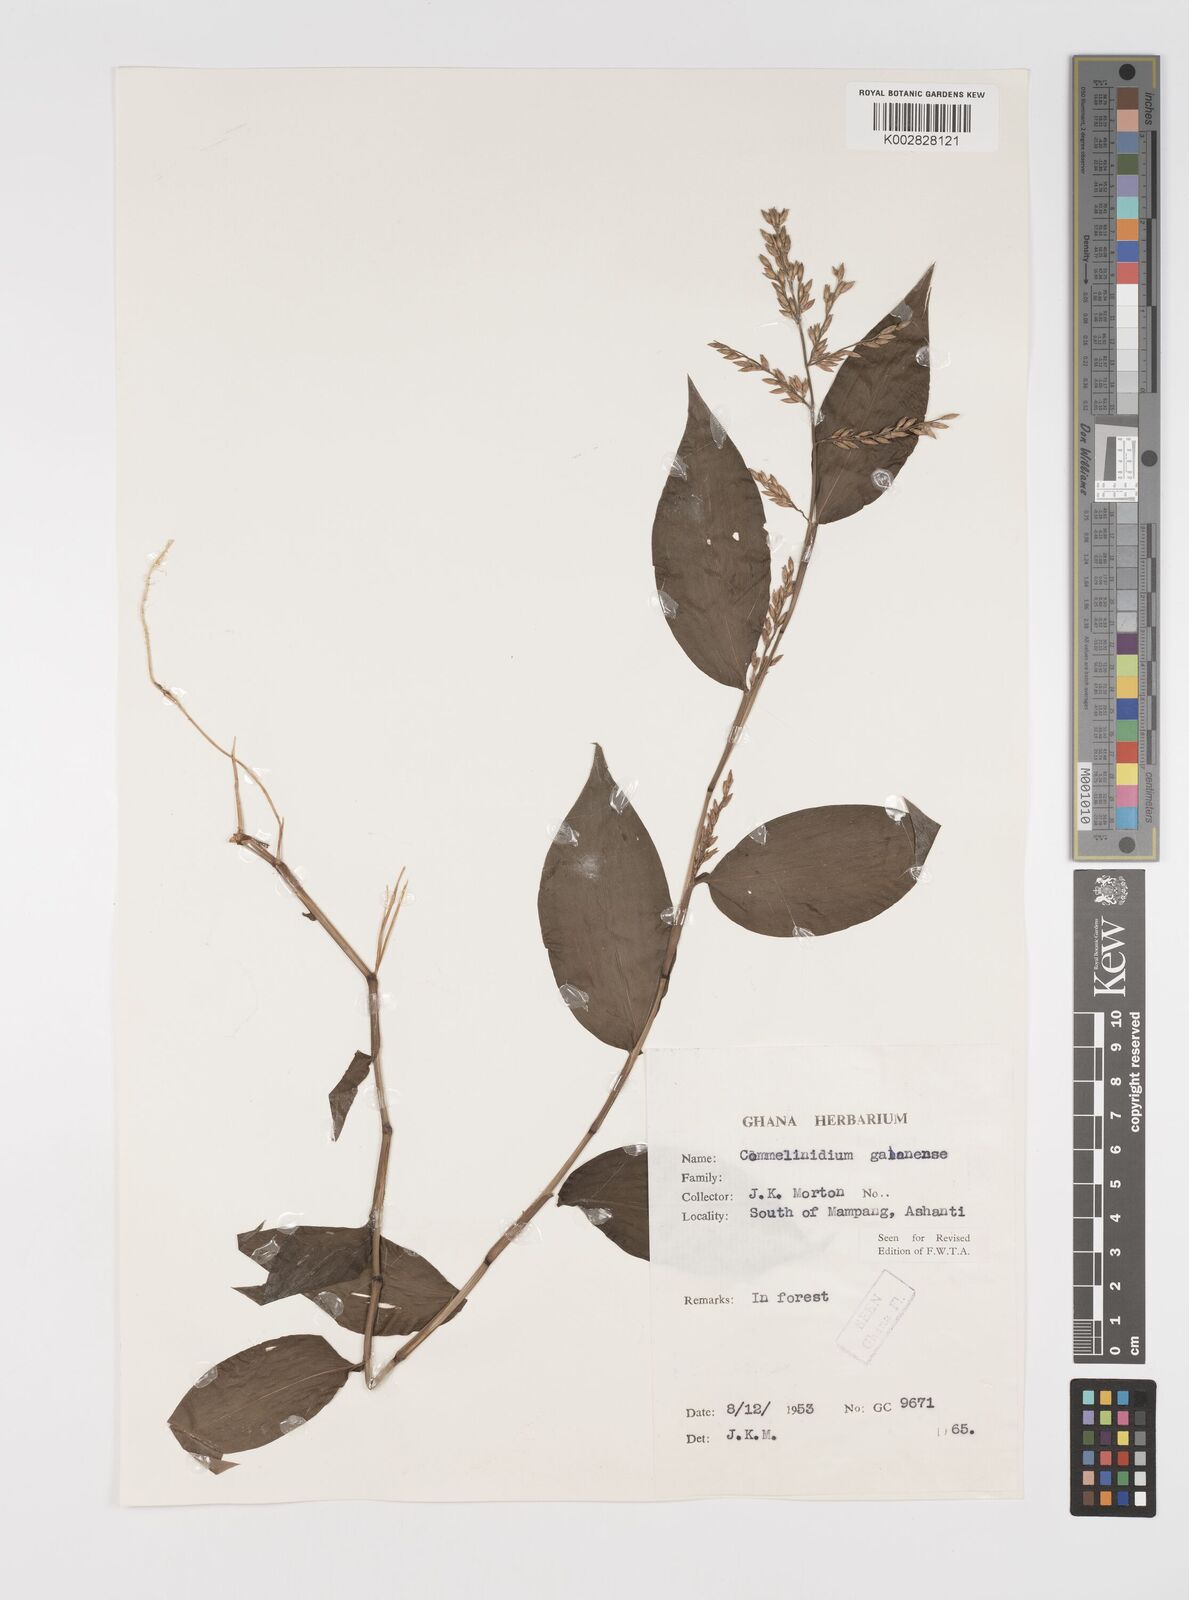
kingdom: Plantae
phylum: Tracheophyta
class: Liliopsida
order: Poales
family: Poaceae
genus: Acroceras
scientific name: Acroceras gabunense
